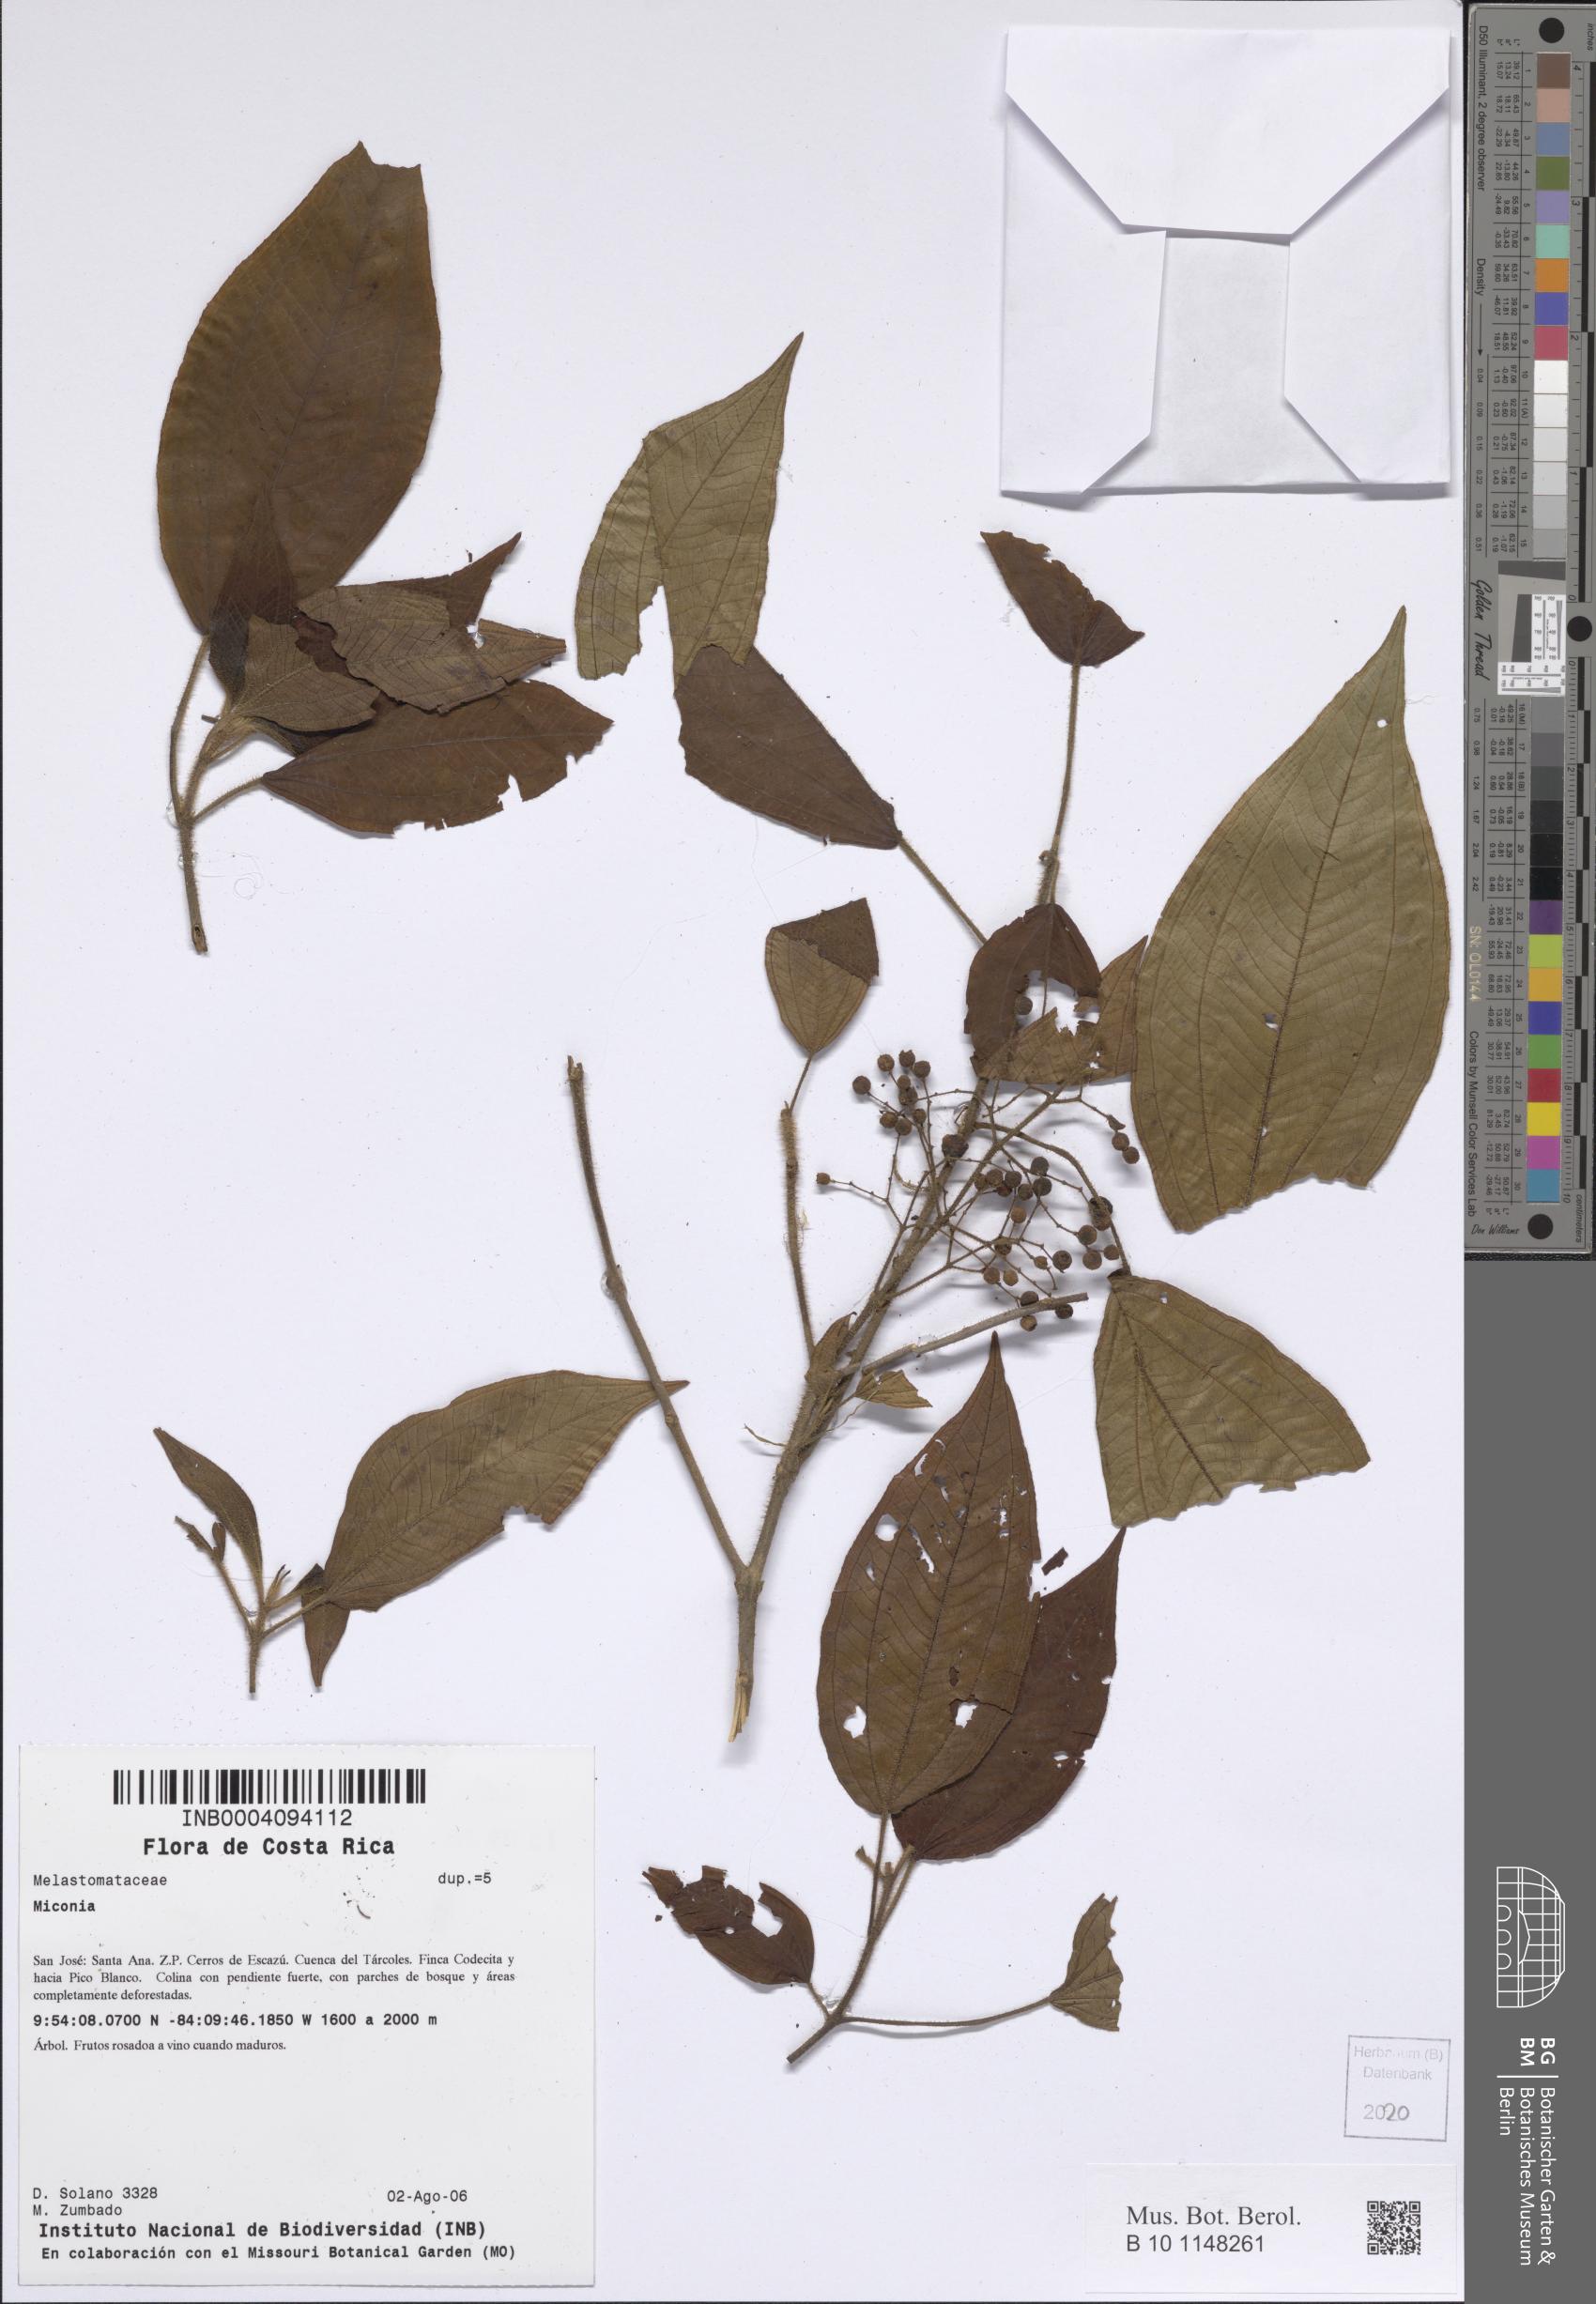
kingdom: Plantae
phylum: Tracheophyta
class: Magnoliopsida
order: Myrtales
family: Melastomataceae
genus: Miconia
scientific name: Miconia
